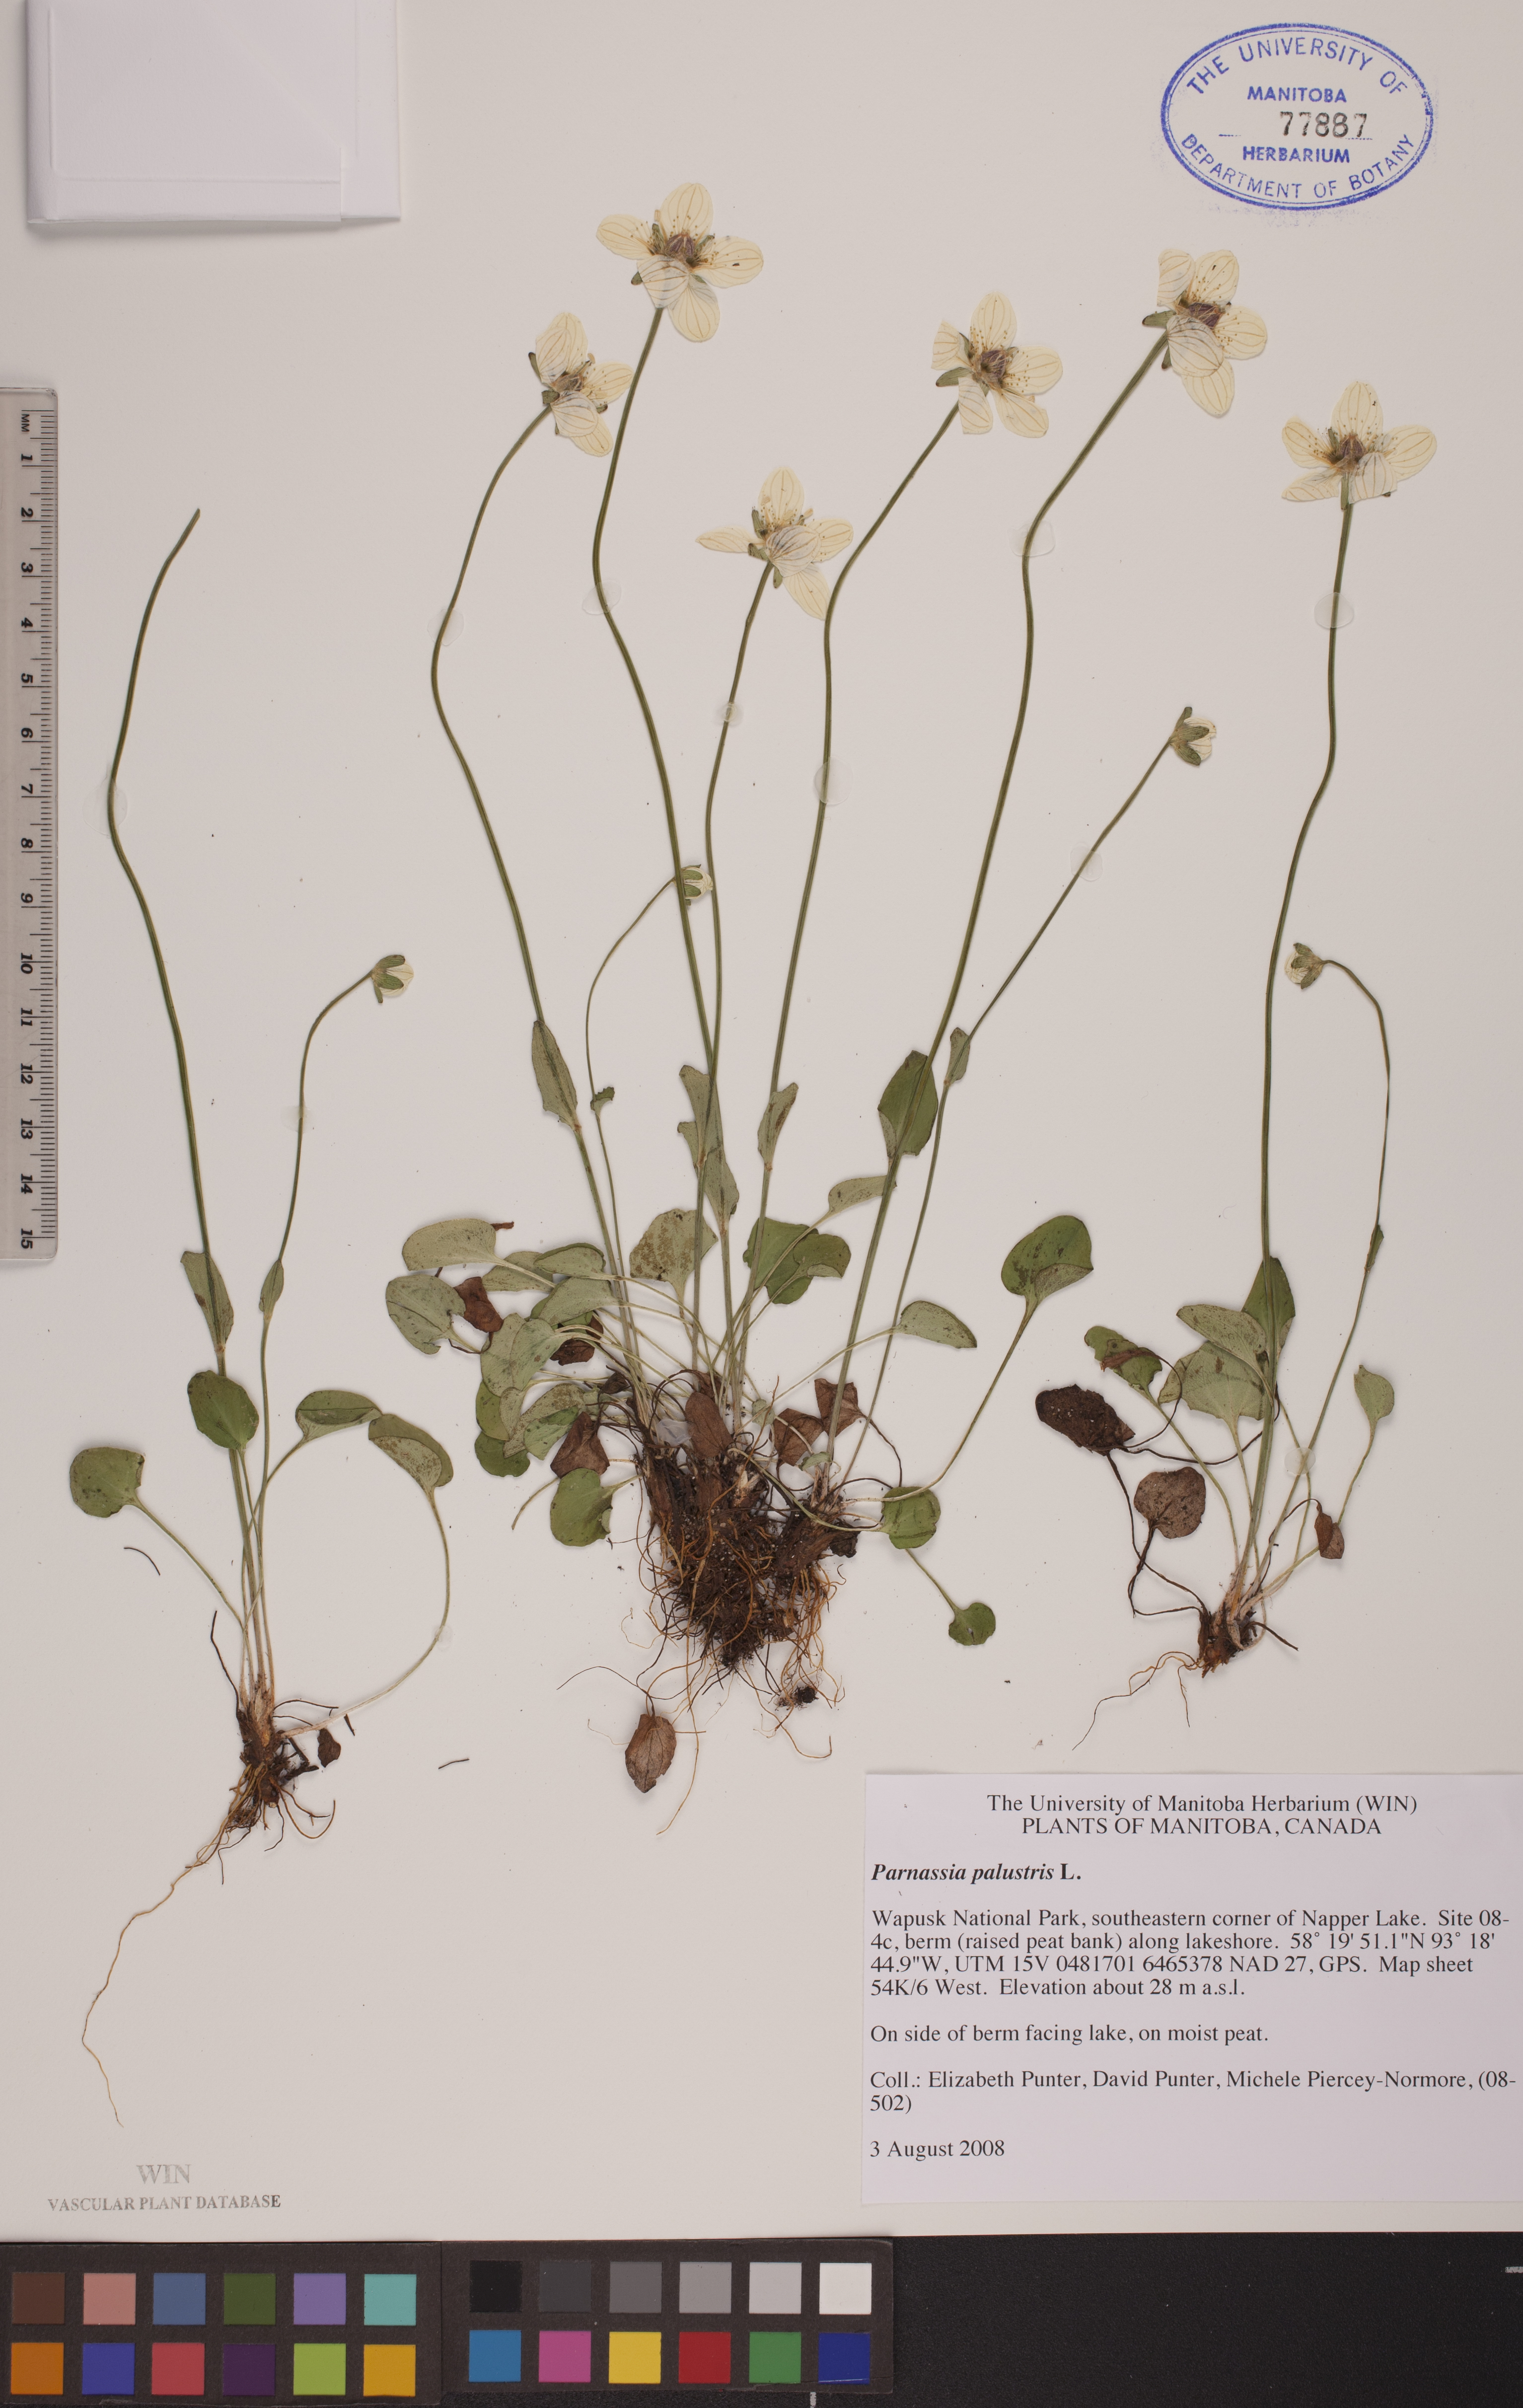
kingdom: Plantae
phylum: Tracheophyta
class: Magnoliopsida
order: Celastrales
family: Parnassiaceae
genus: Parnassia
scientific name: Parnassia palustris
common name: Grass-of-parnassus
